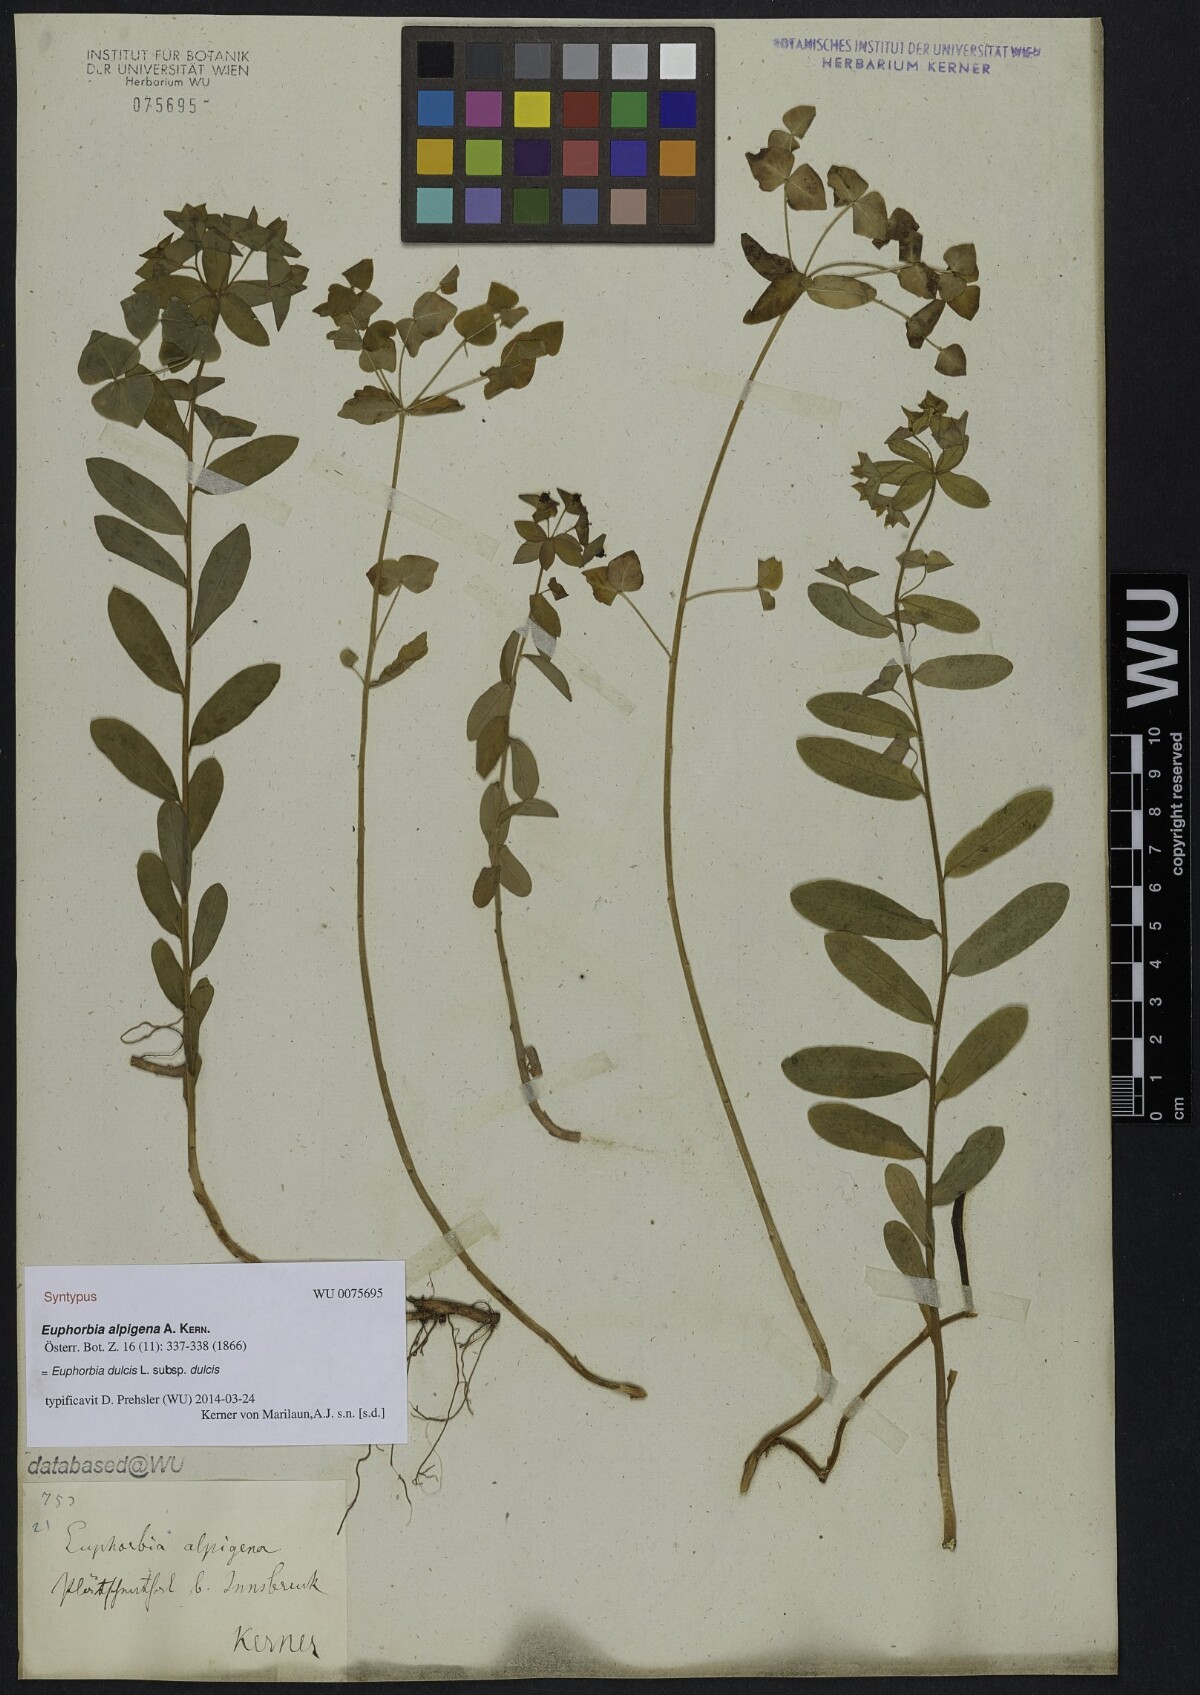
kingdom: Plantae
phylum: Tracheophyta
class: Magnoliopsida
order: Malpighiales
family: Euphorbiaceae
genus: Euphorbia
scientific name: Euphorbia dulcis
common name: Sweet spurge
